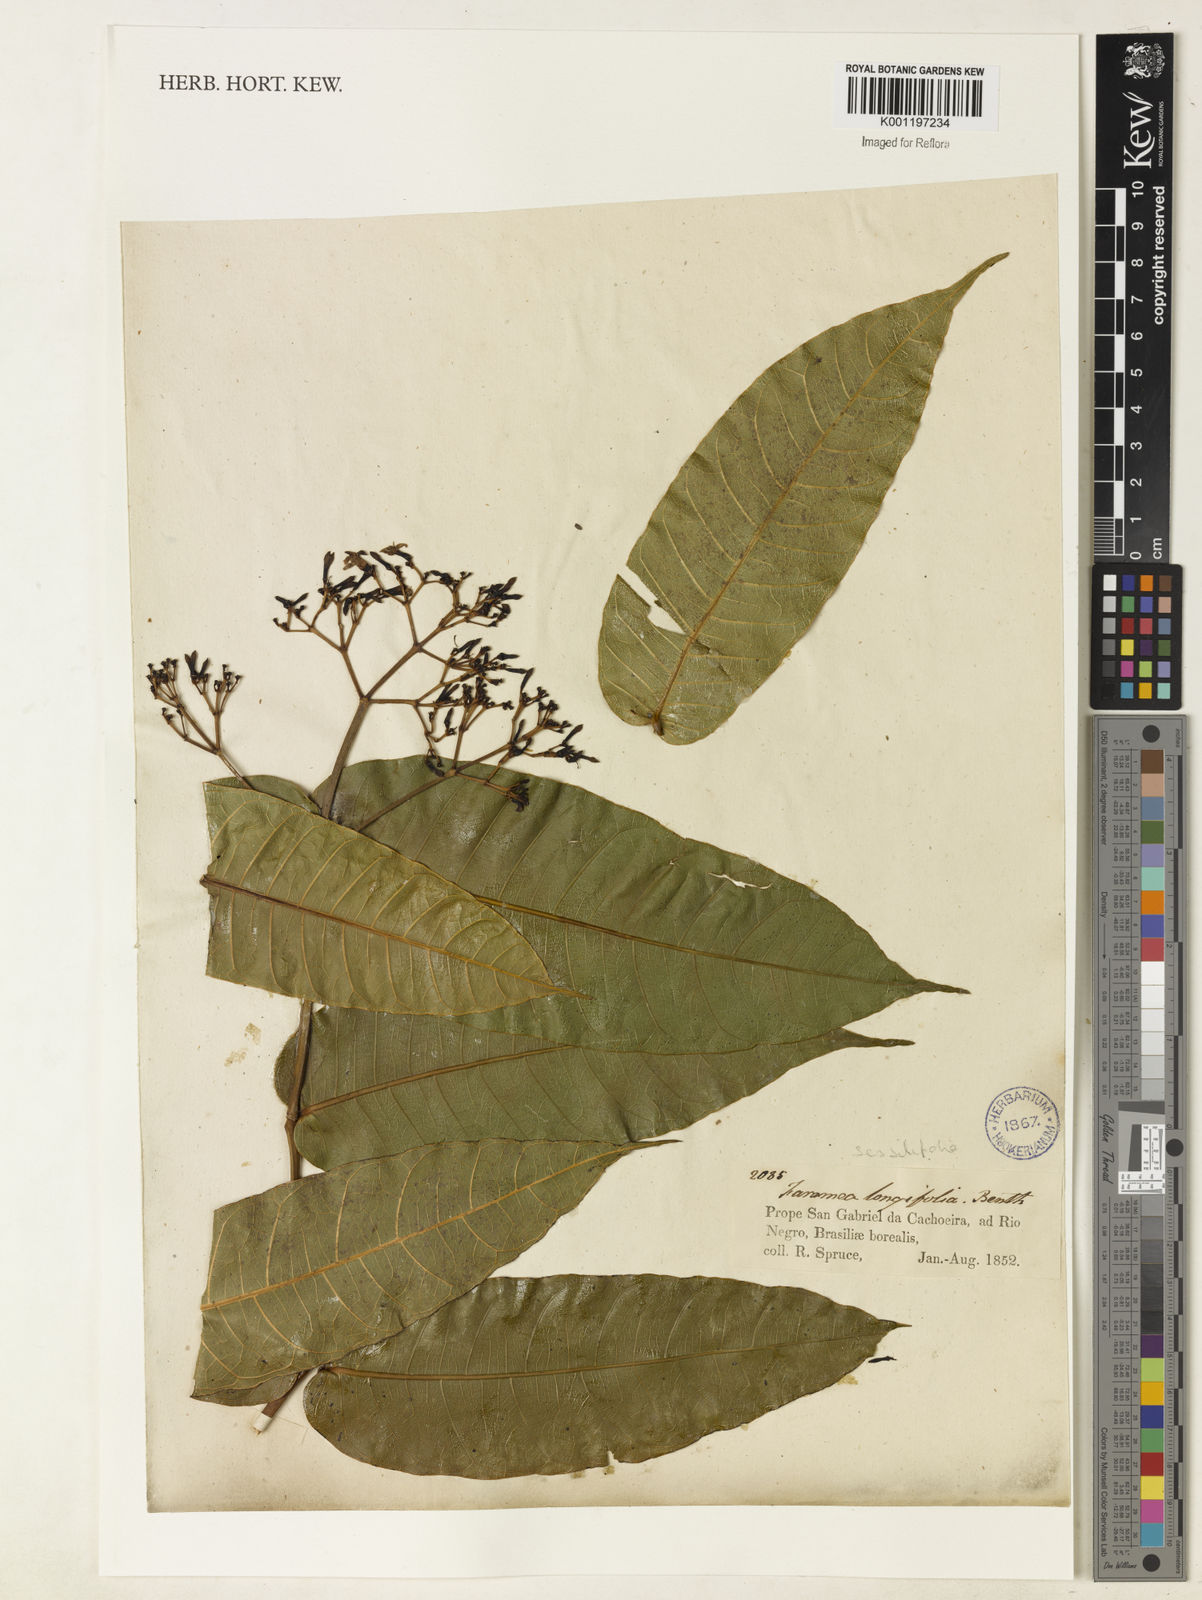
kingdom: Plantae
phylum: Tracheophyta
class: Magnoliopsida
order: Gentianales
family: Rubiaceae
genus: Faramea
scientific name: Faramea sessilifolia
